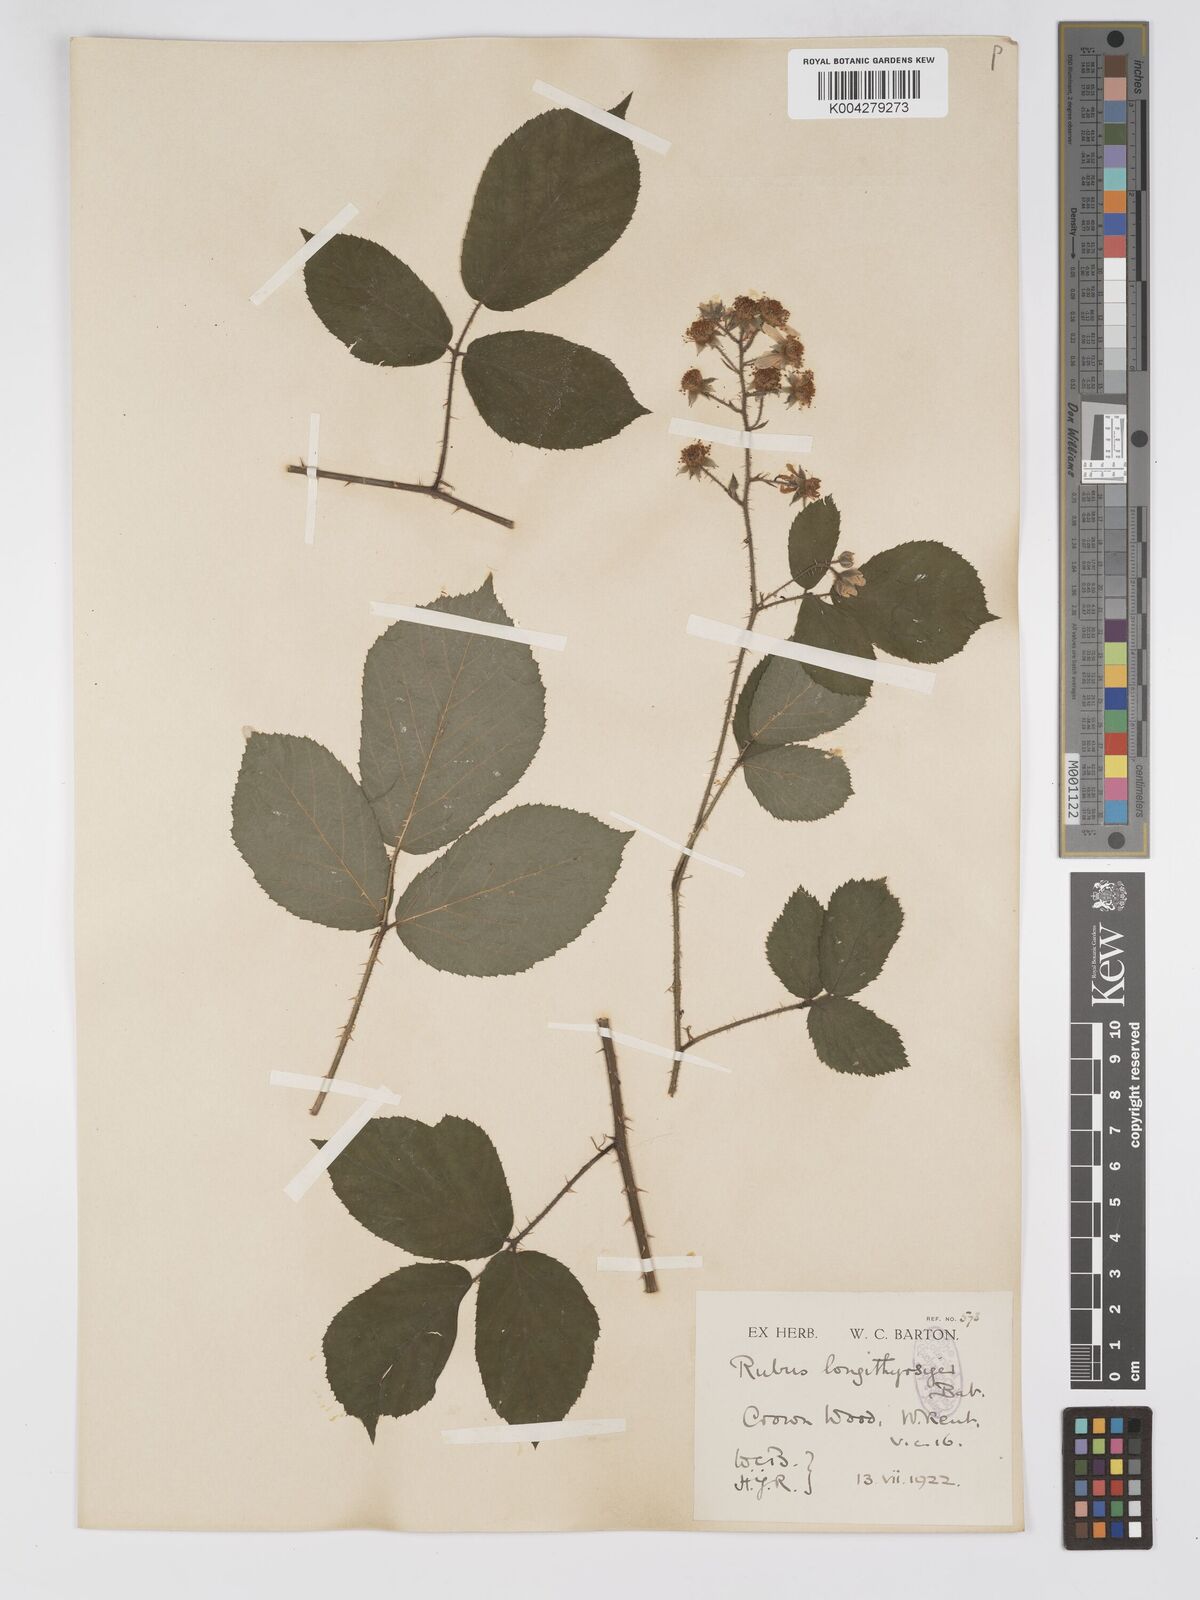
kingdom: Plantae
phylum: Tracheophyta
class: Magnoliopsida
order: Rosales
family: Rosaceae
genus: Rubus
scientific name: Rubus longithyrsiger
